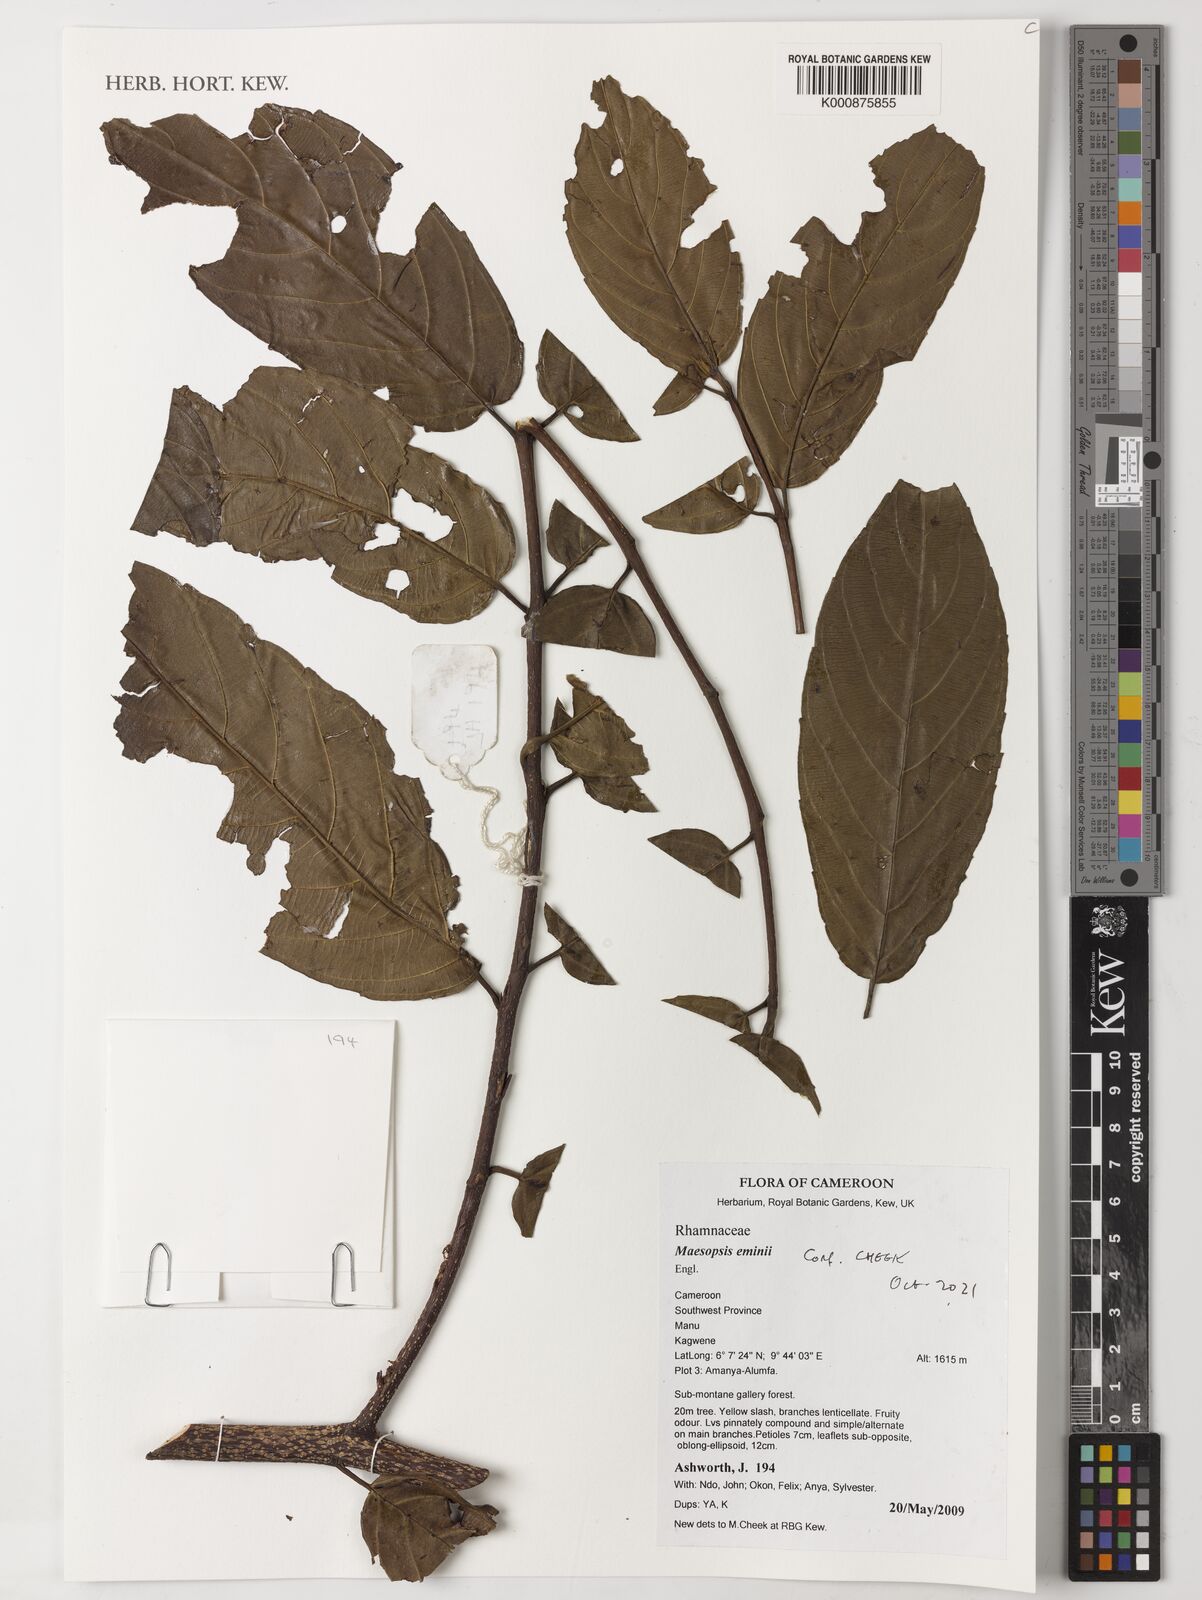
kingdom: Plantae
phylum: Tracheophyta
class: Magnoliopsida
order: Rosales
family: Rhamnaceae
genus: Maesopsis
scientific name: Maesopsis eminii
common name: Umbrella tree
